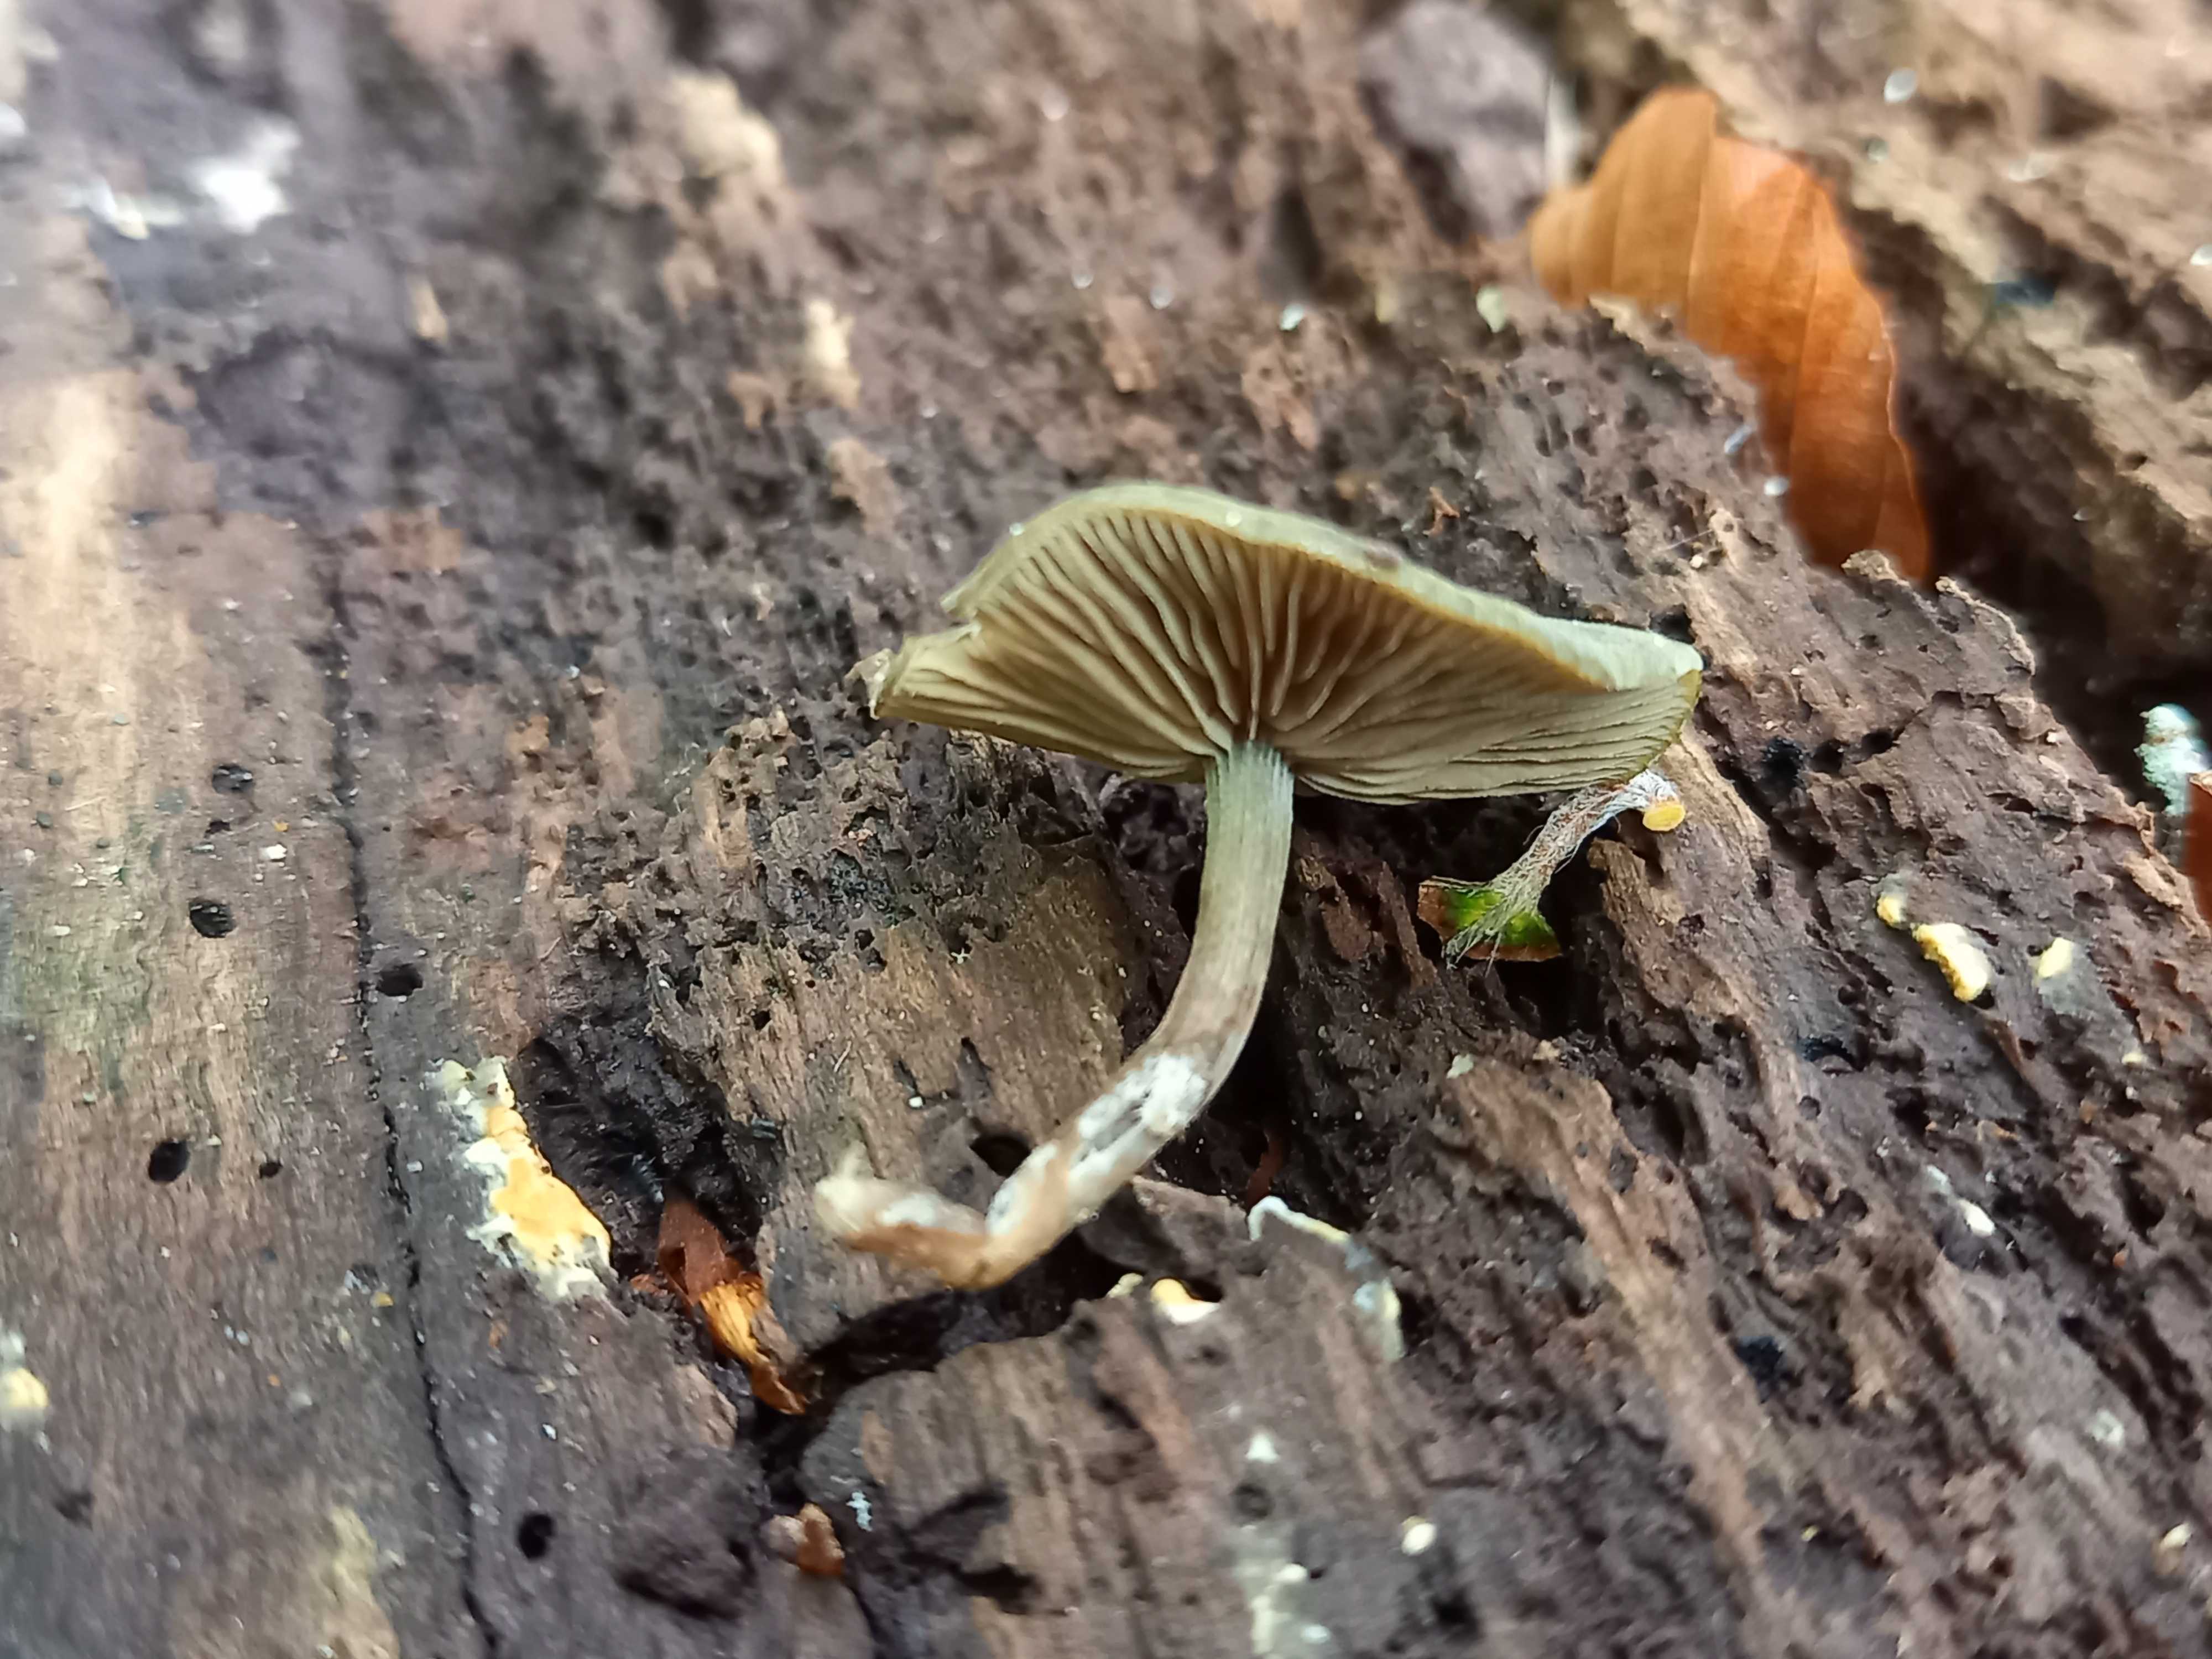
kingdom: Fungi
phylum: Basidiomycota
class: Agaricomycetes
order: Agaricales
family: Crepidotaceae
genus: Simocybe
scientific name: Simocybe centunculus
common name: enlig skyggehat
